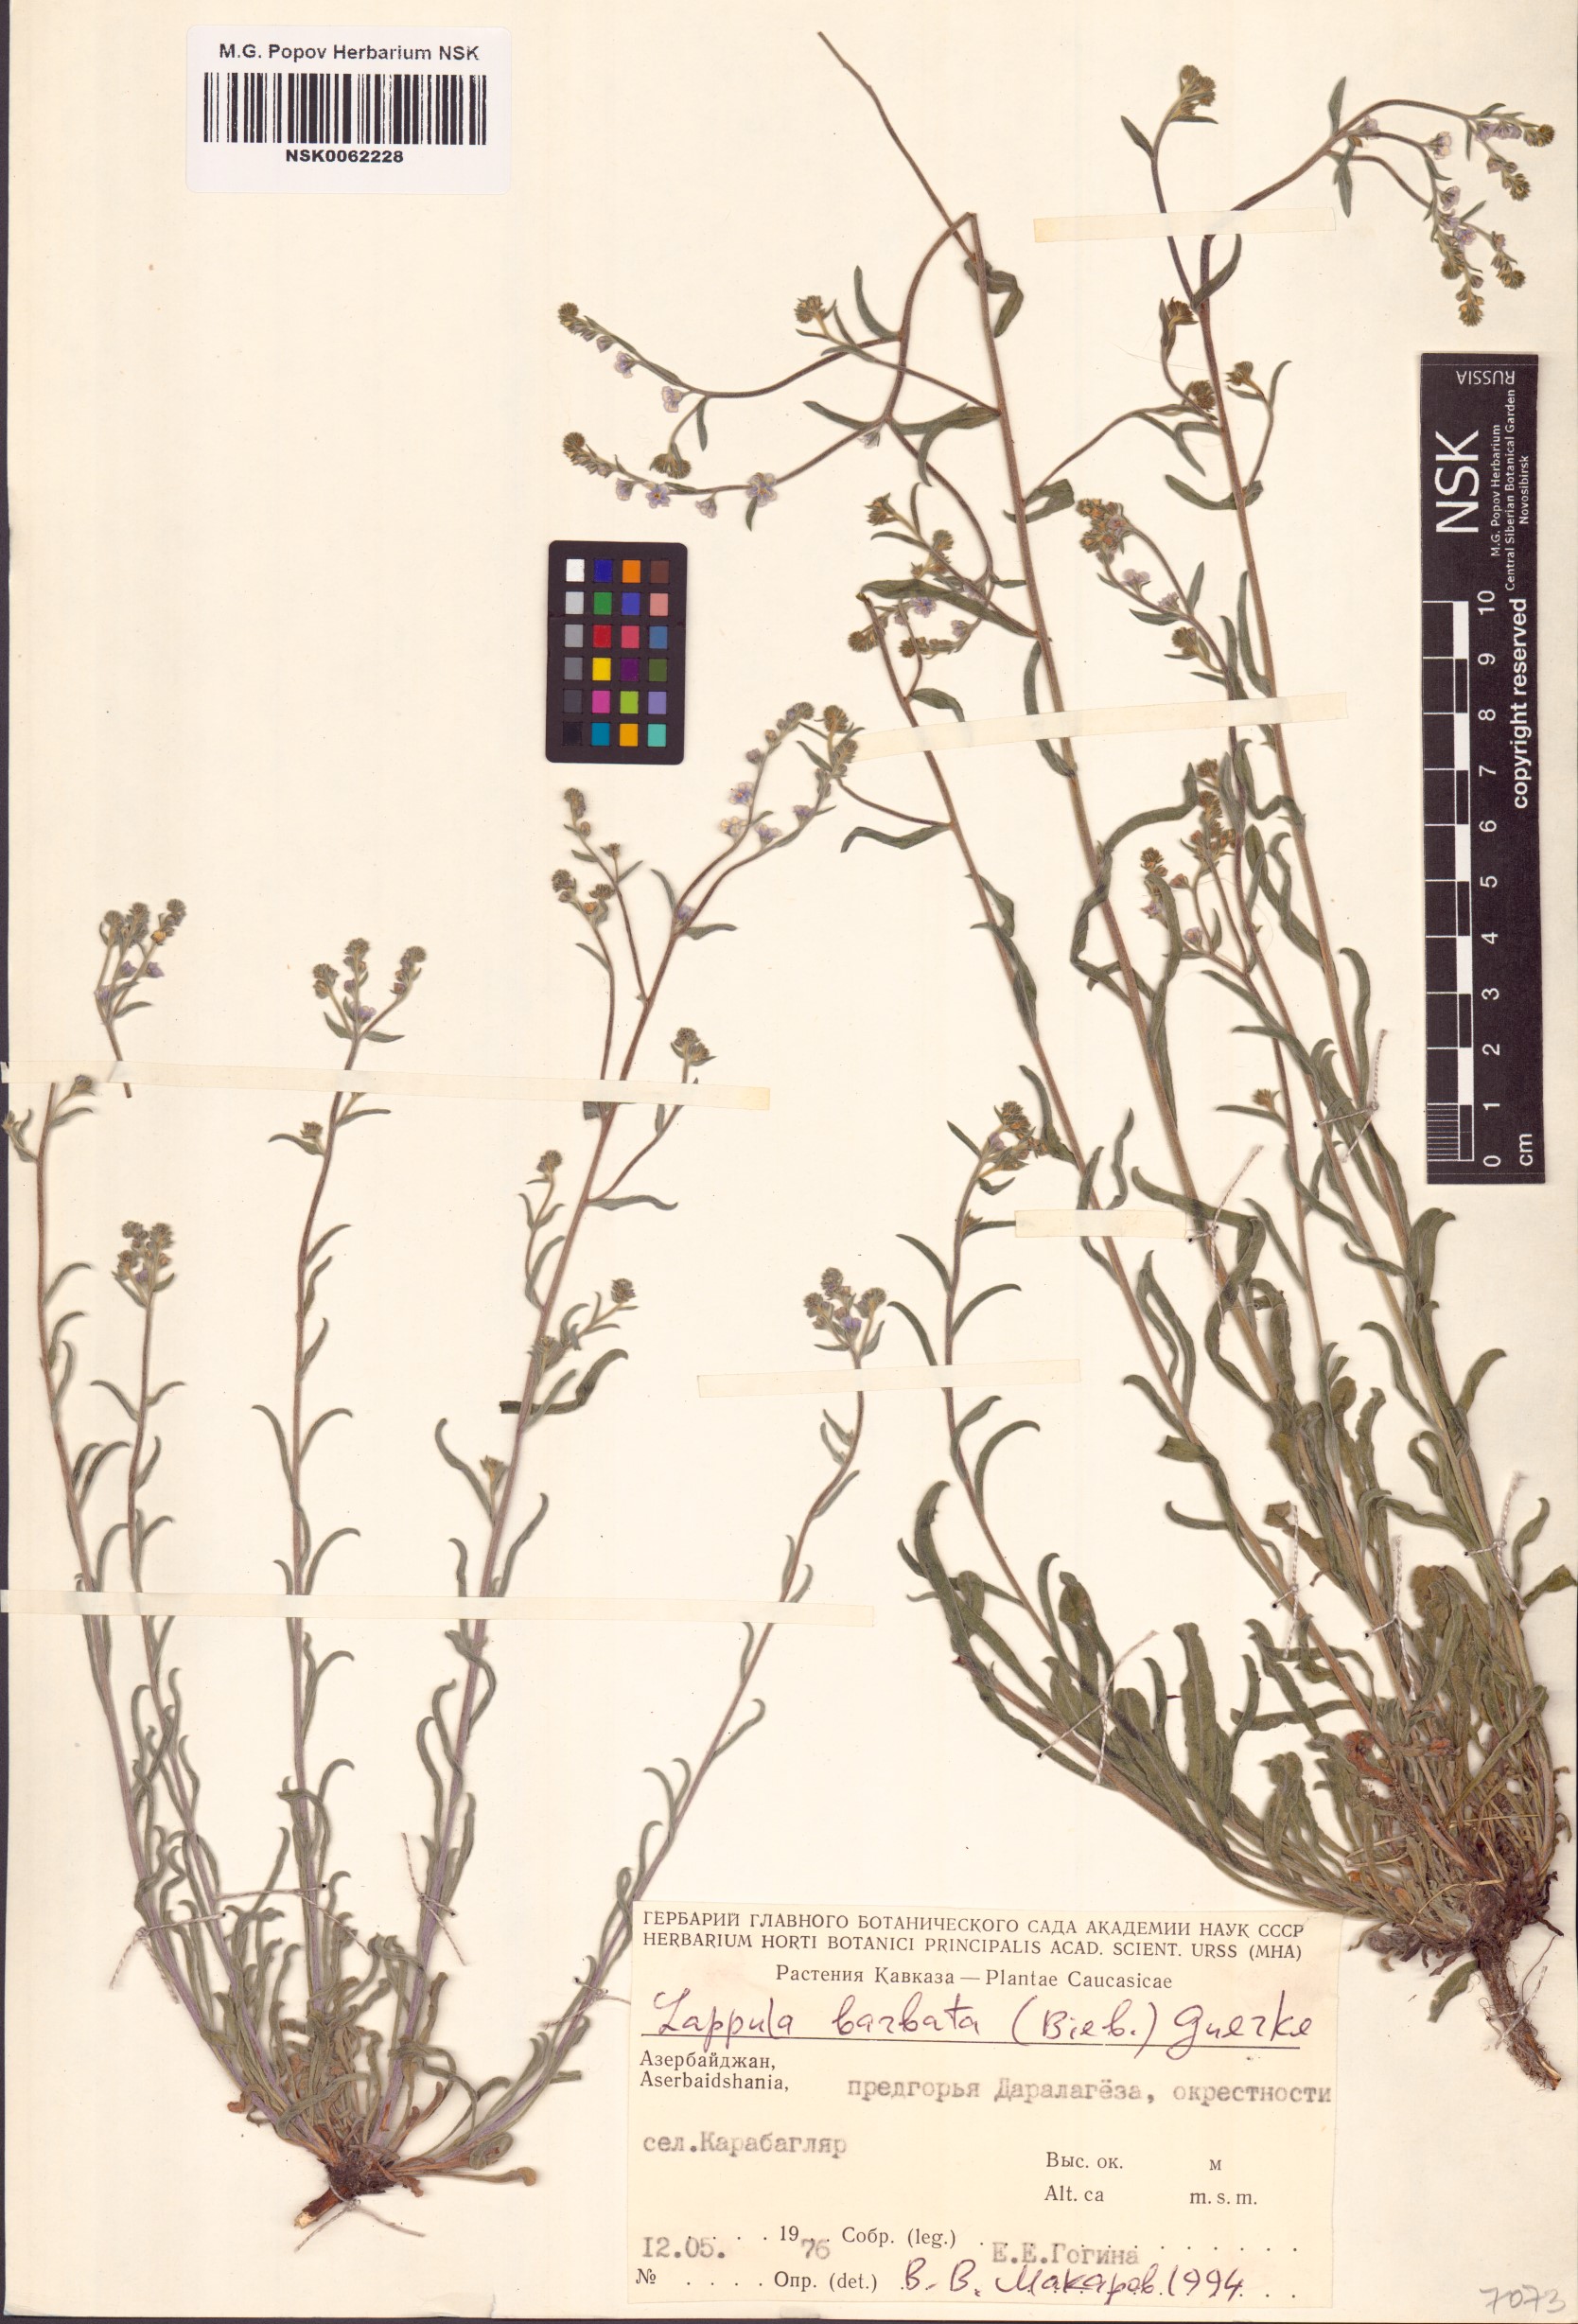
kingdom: Plantae
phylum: Tracheophyta
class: Magnoliopsida
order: Boraginales
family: Boraginaceae
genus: Lappula
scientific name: Lappula barbata
